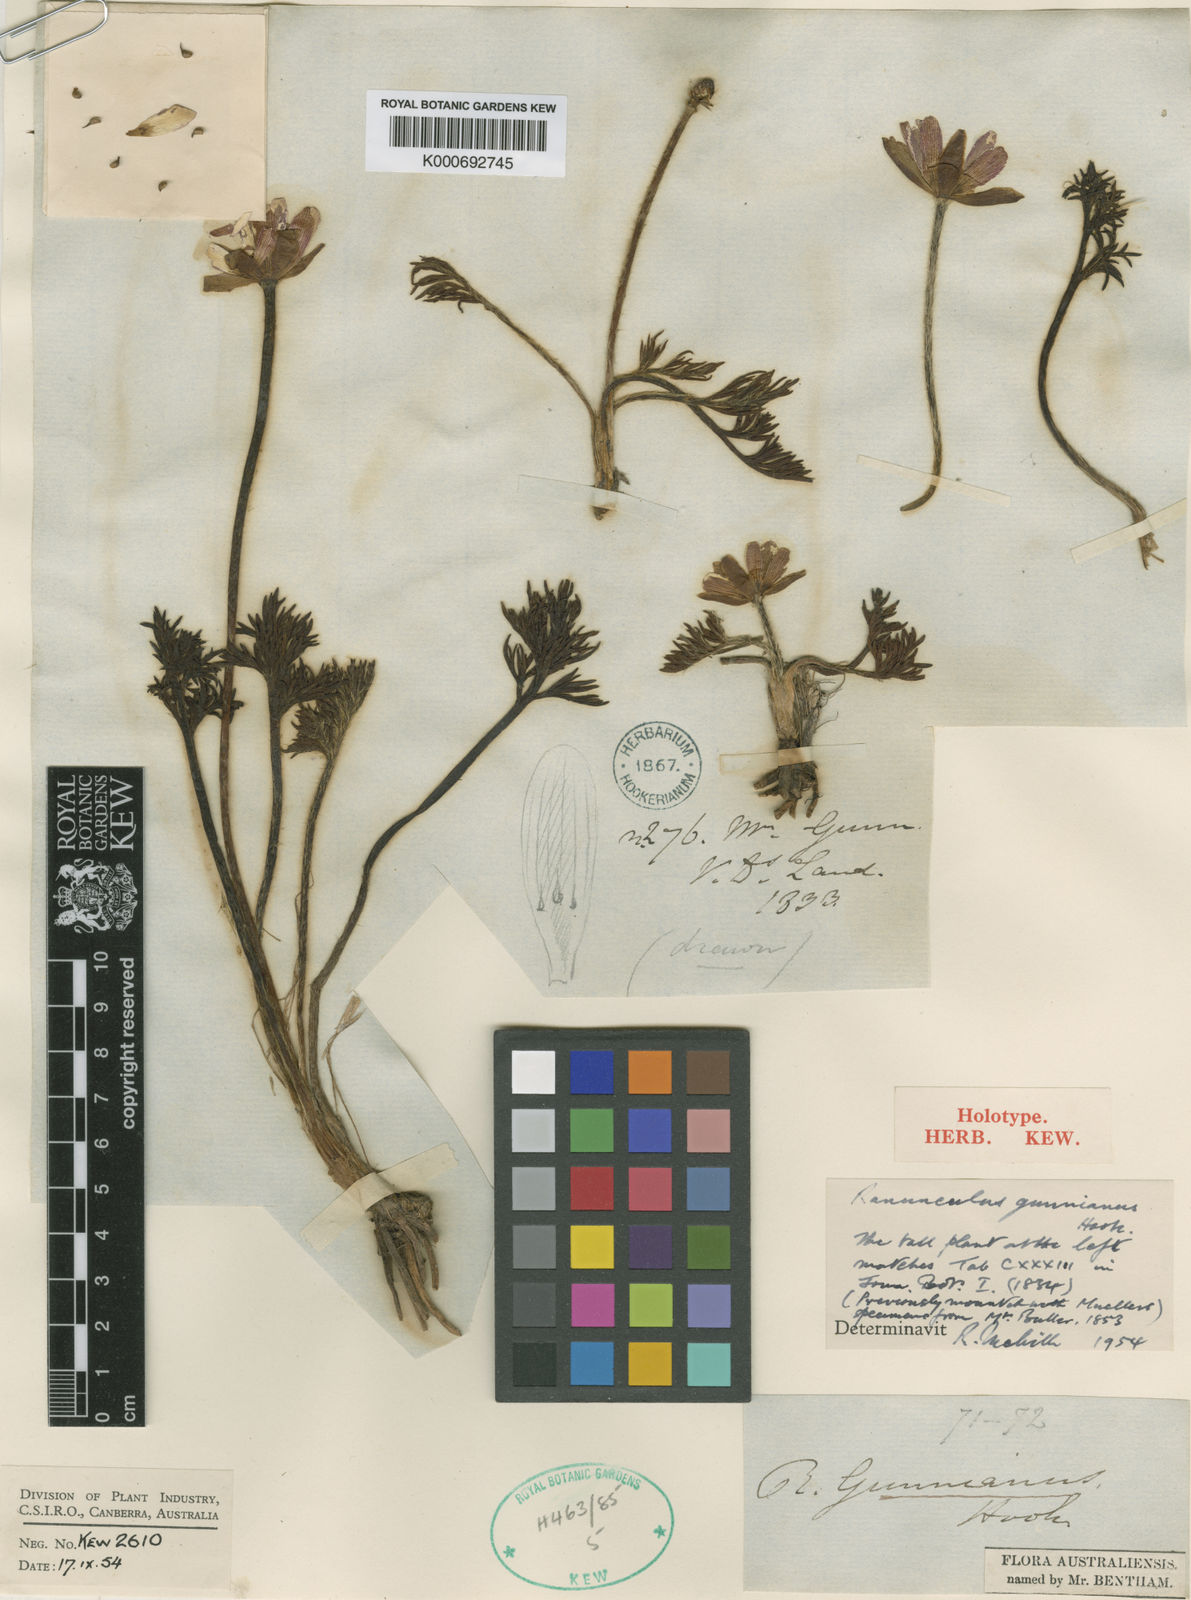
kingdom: Plantae
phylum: Tracheophyta
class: Magnoliopsida
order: Ranunculales
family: Ranunculaceae
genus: Ranunculus
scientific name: Ranunculus gunnianus
